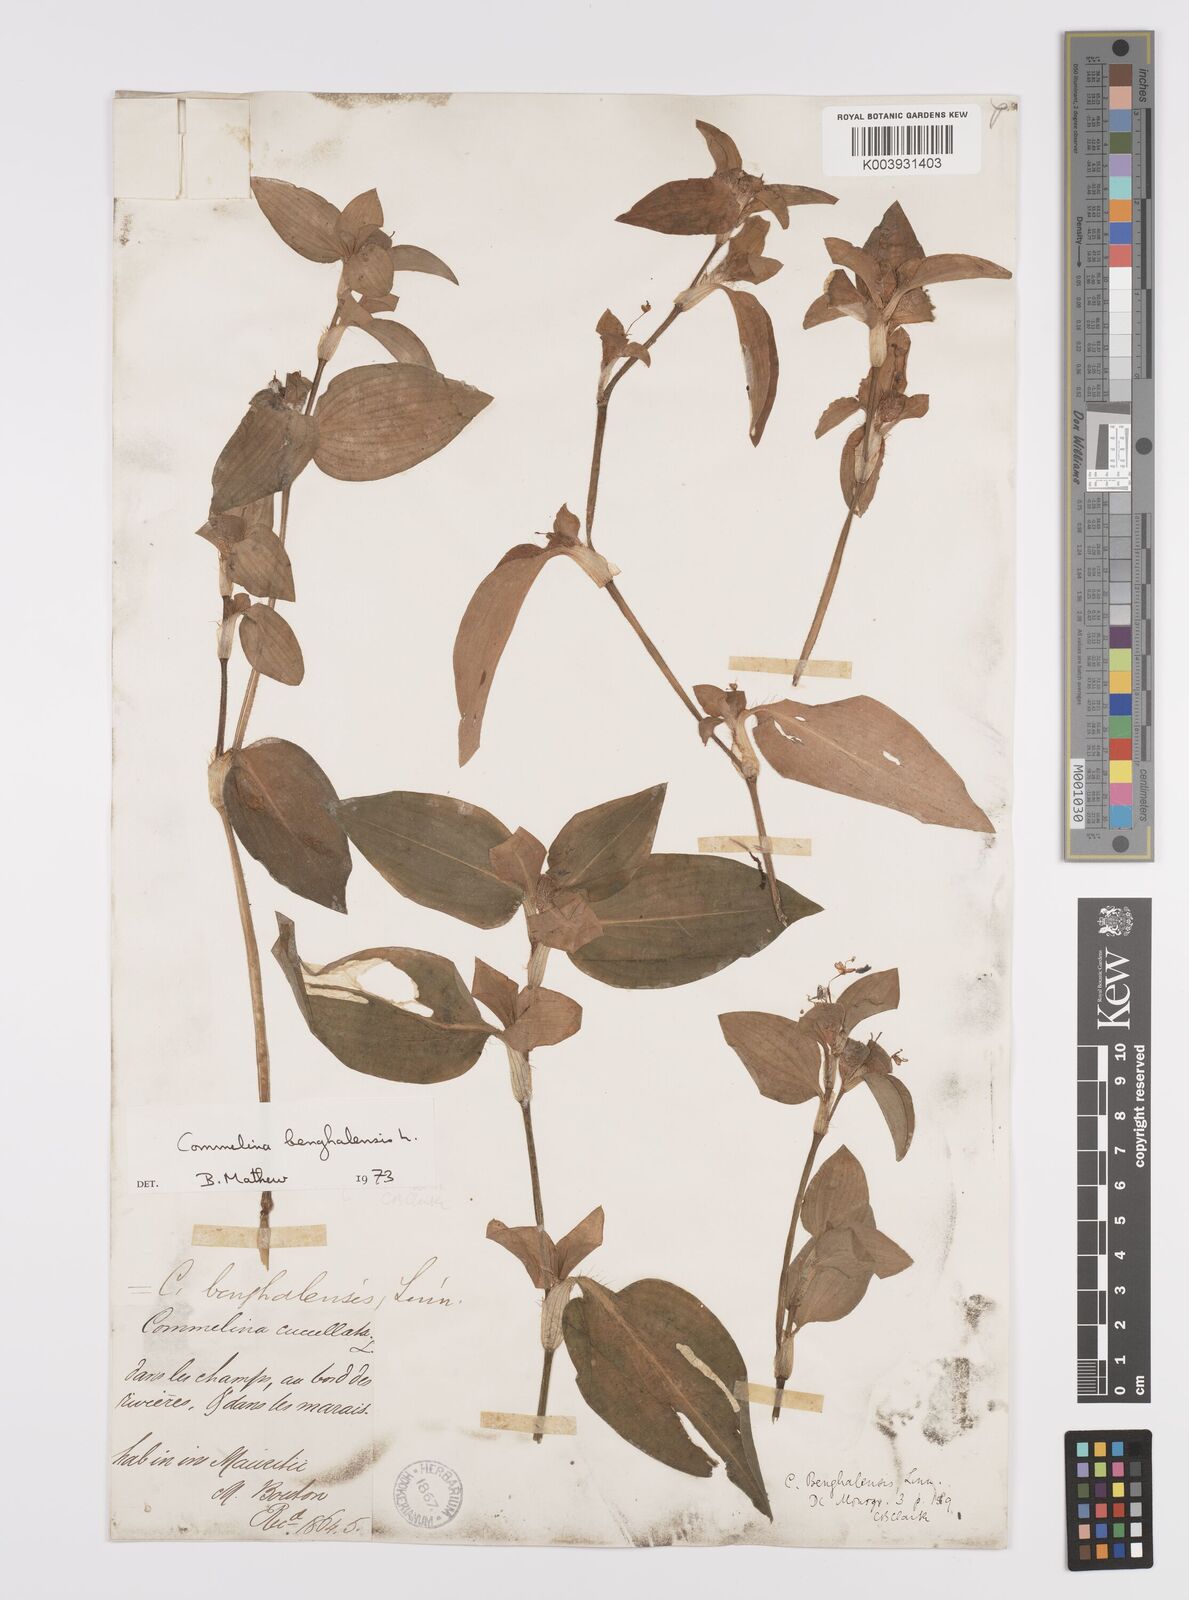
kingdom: Plantae
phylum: Tracheophyta
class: Liliopsida
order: Commelinales
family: Commelinaceae
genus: Commelina
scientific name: Commelina benghalensis
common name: Jio
